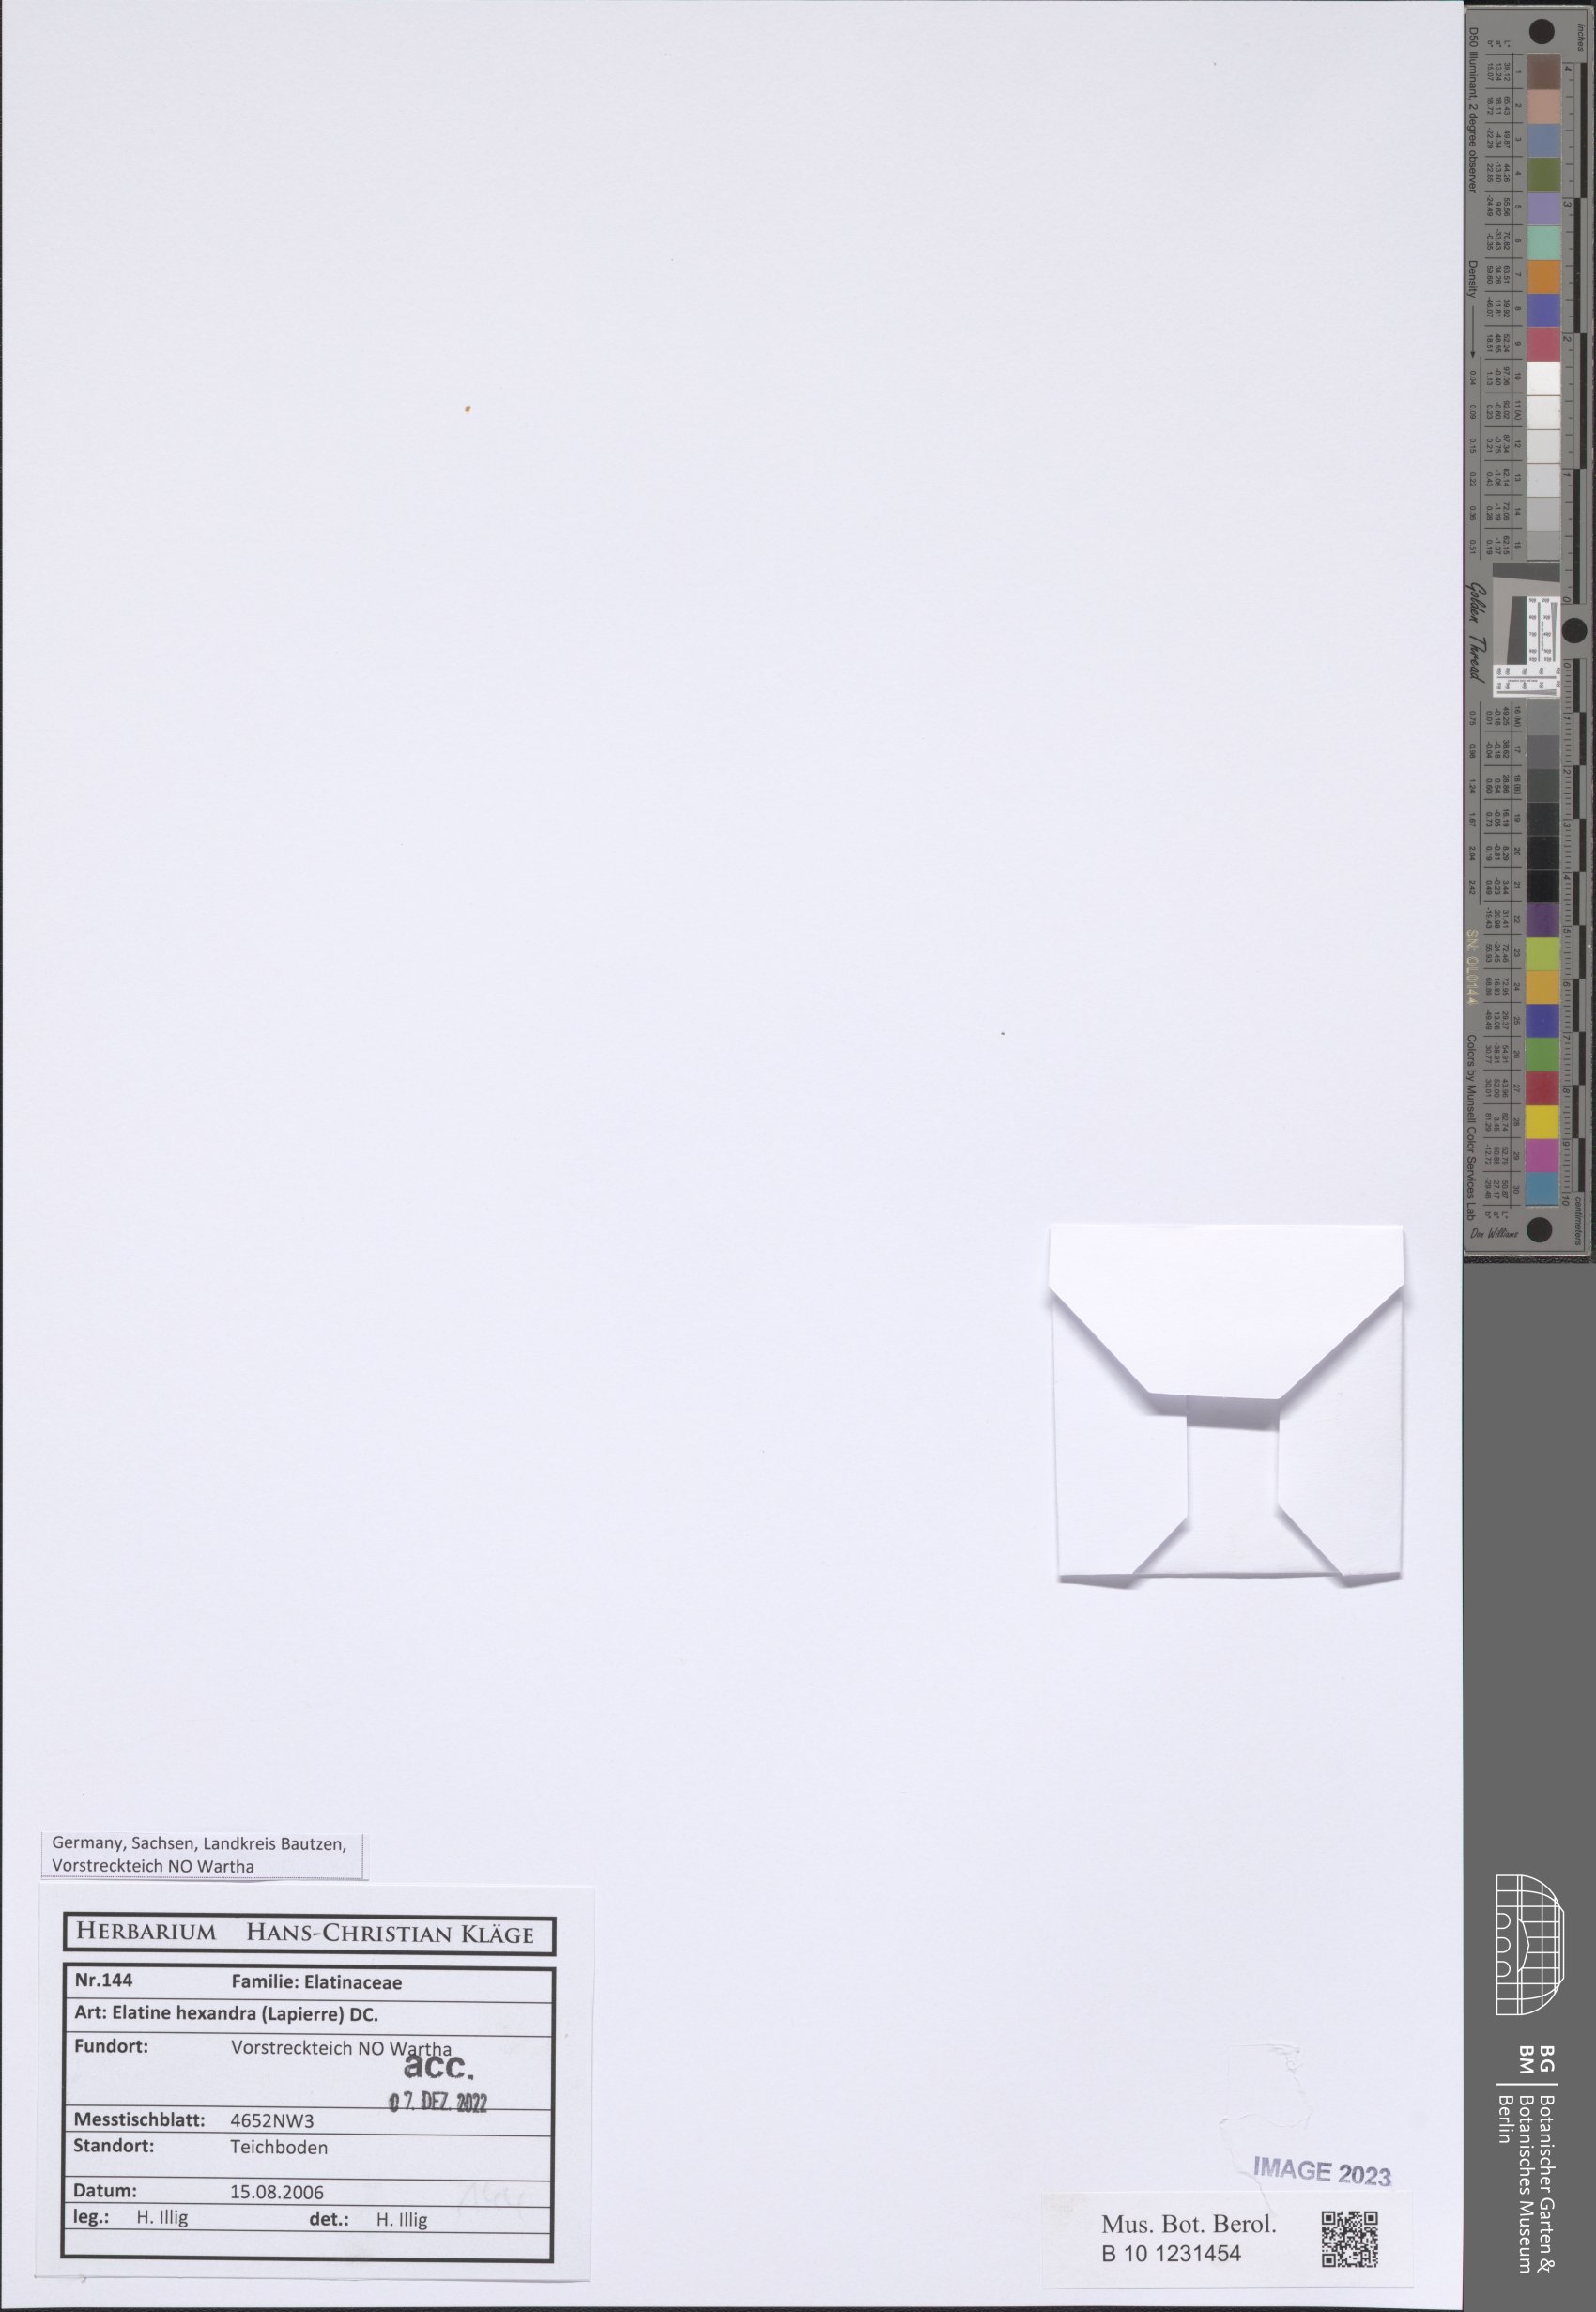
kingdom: Plantae
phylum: Tracheophyta
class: Magnoliopsida
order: Malpighiales
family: Elatinaceae
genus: Elatine
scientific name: Elatine hexandra
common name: Six-stamened waterwort
